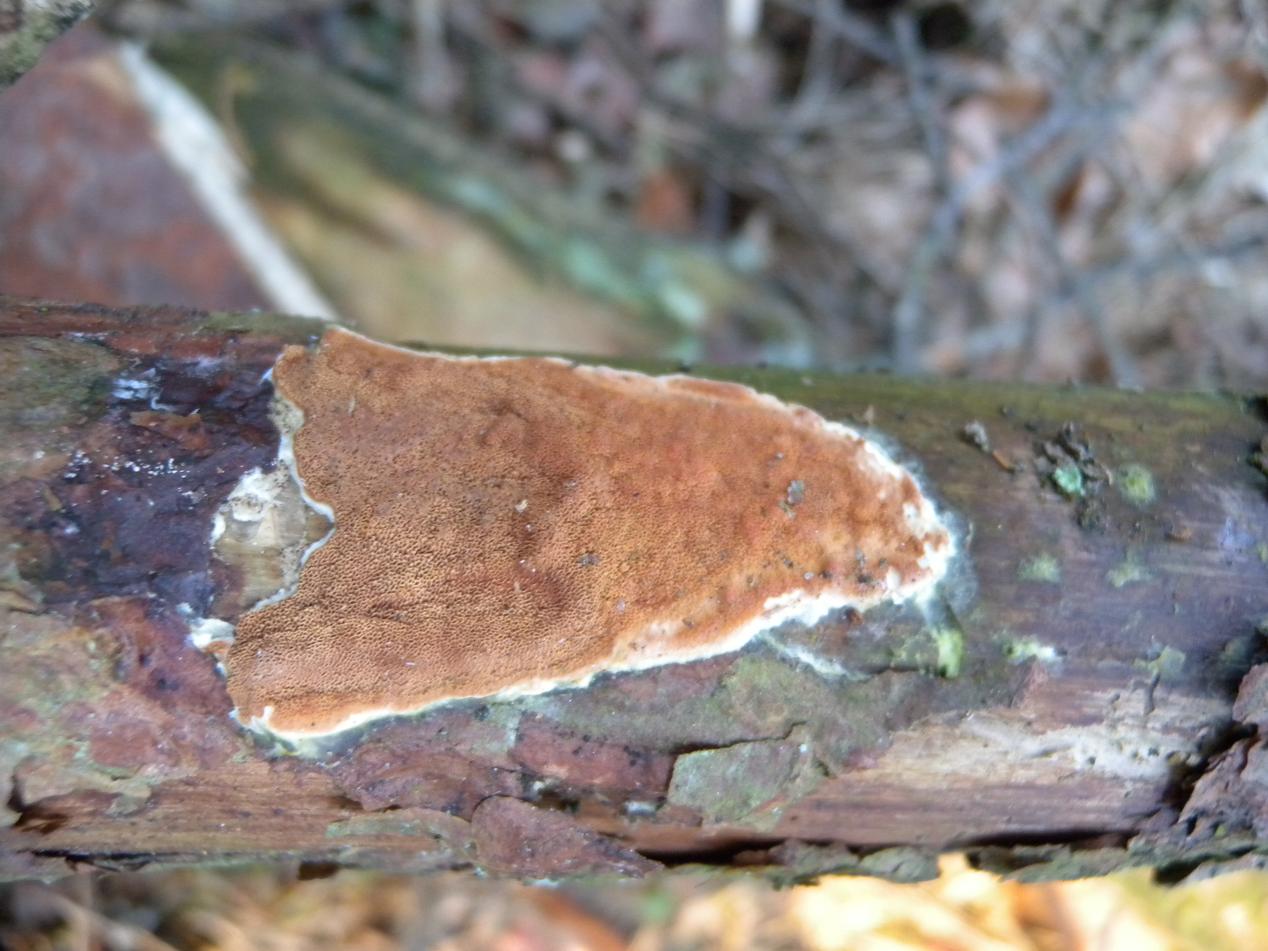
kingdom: Fungi
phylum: Basidiomycota
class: Agaricomycetes
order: Polyporales
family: Irpicaceae
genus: Meruliopsis
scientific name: Meruliopsis taxicola
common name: purpurbrun foldporesvamp
